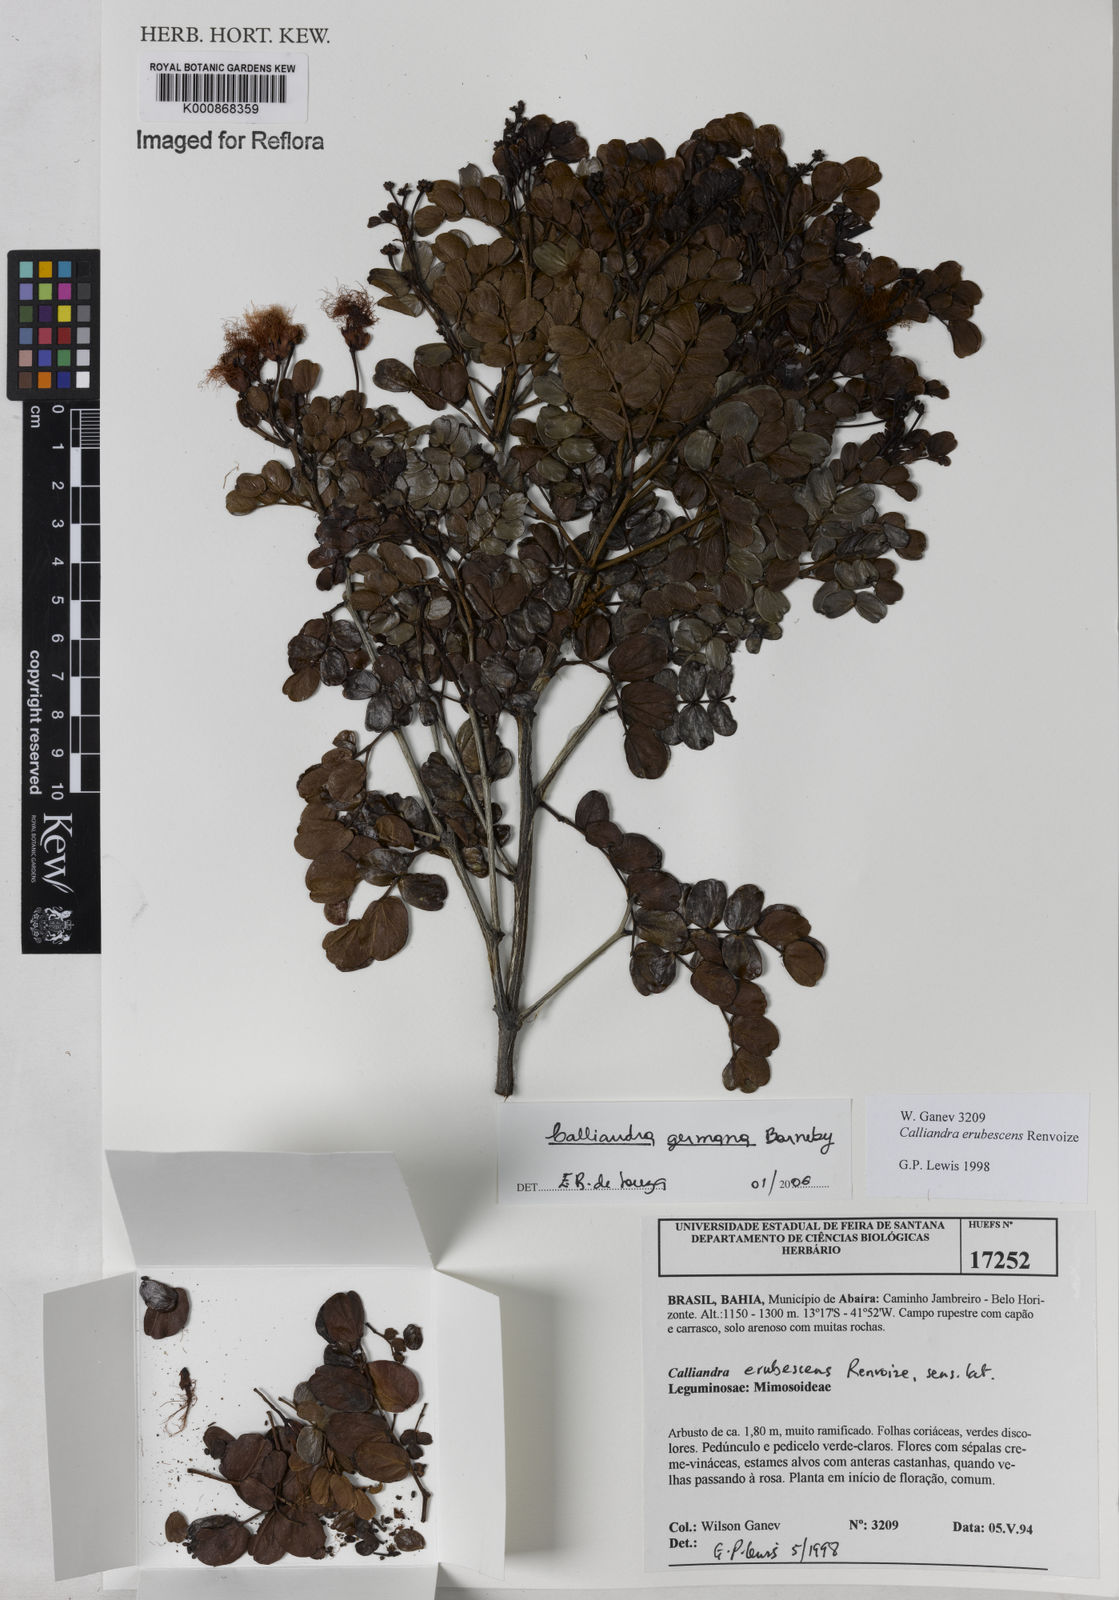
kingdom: Plantae
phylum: Tracheophyta
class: Magnoliopsida
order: Fabales
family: Fabaceae
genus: Calliandra
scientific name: Calliandra germana
